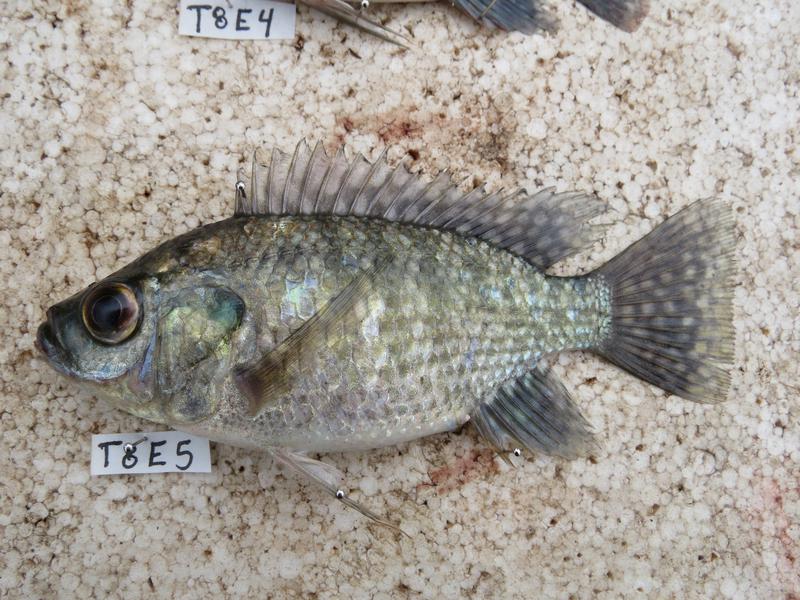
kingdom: Animalia
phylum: Chordata
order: Perciformes
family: Cichlidae
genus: Oreochromis
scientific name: Oreochromis leucostictus
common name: Blue spotted tilapia
